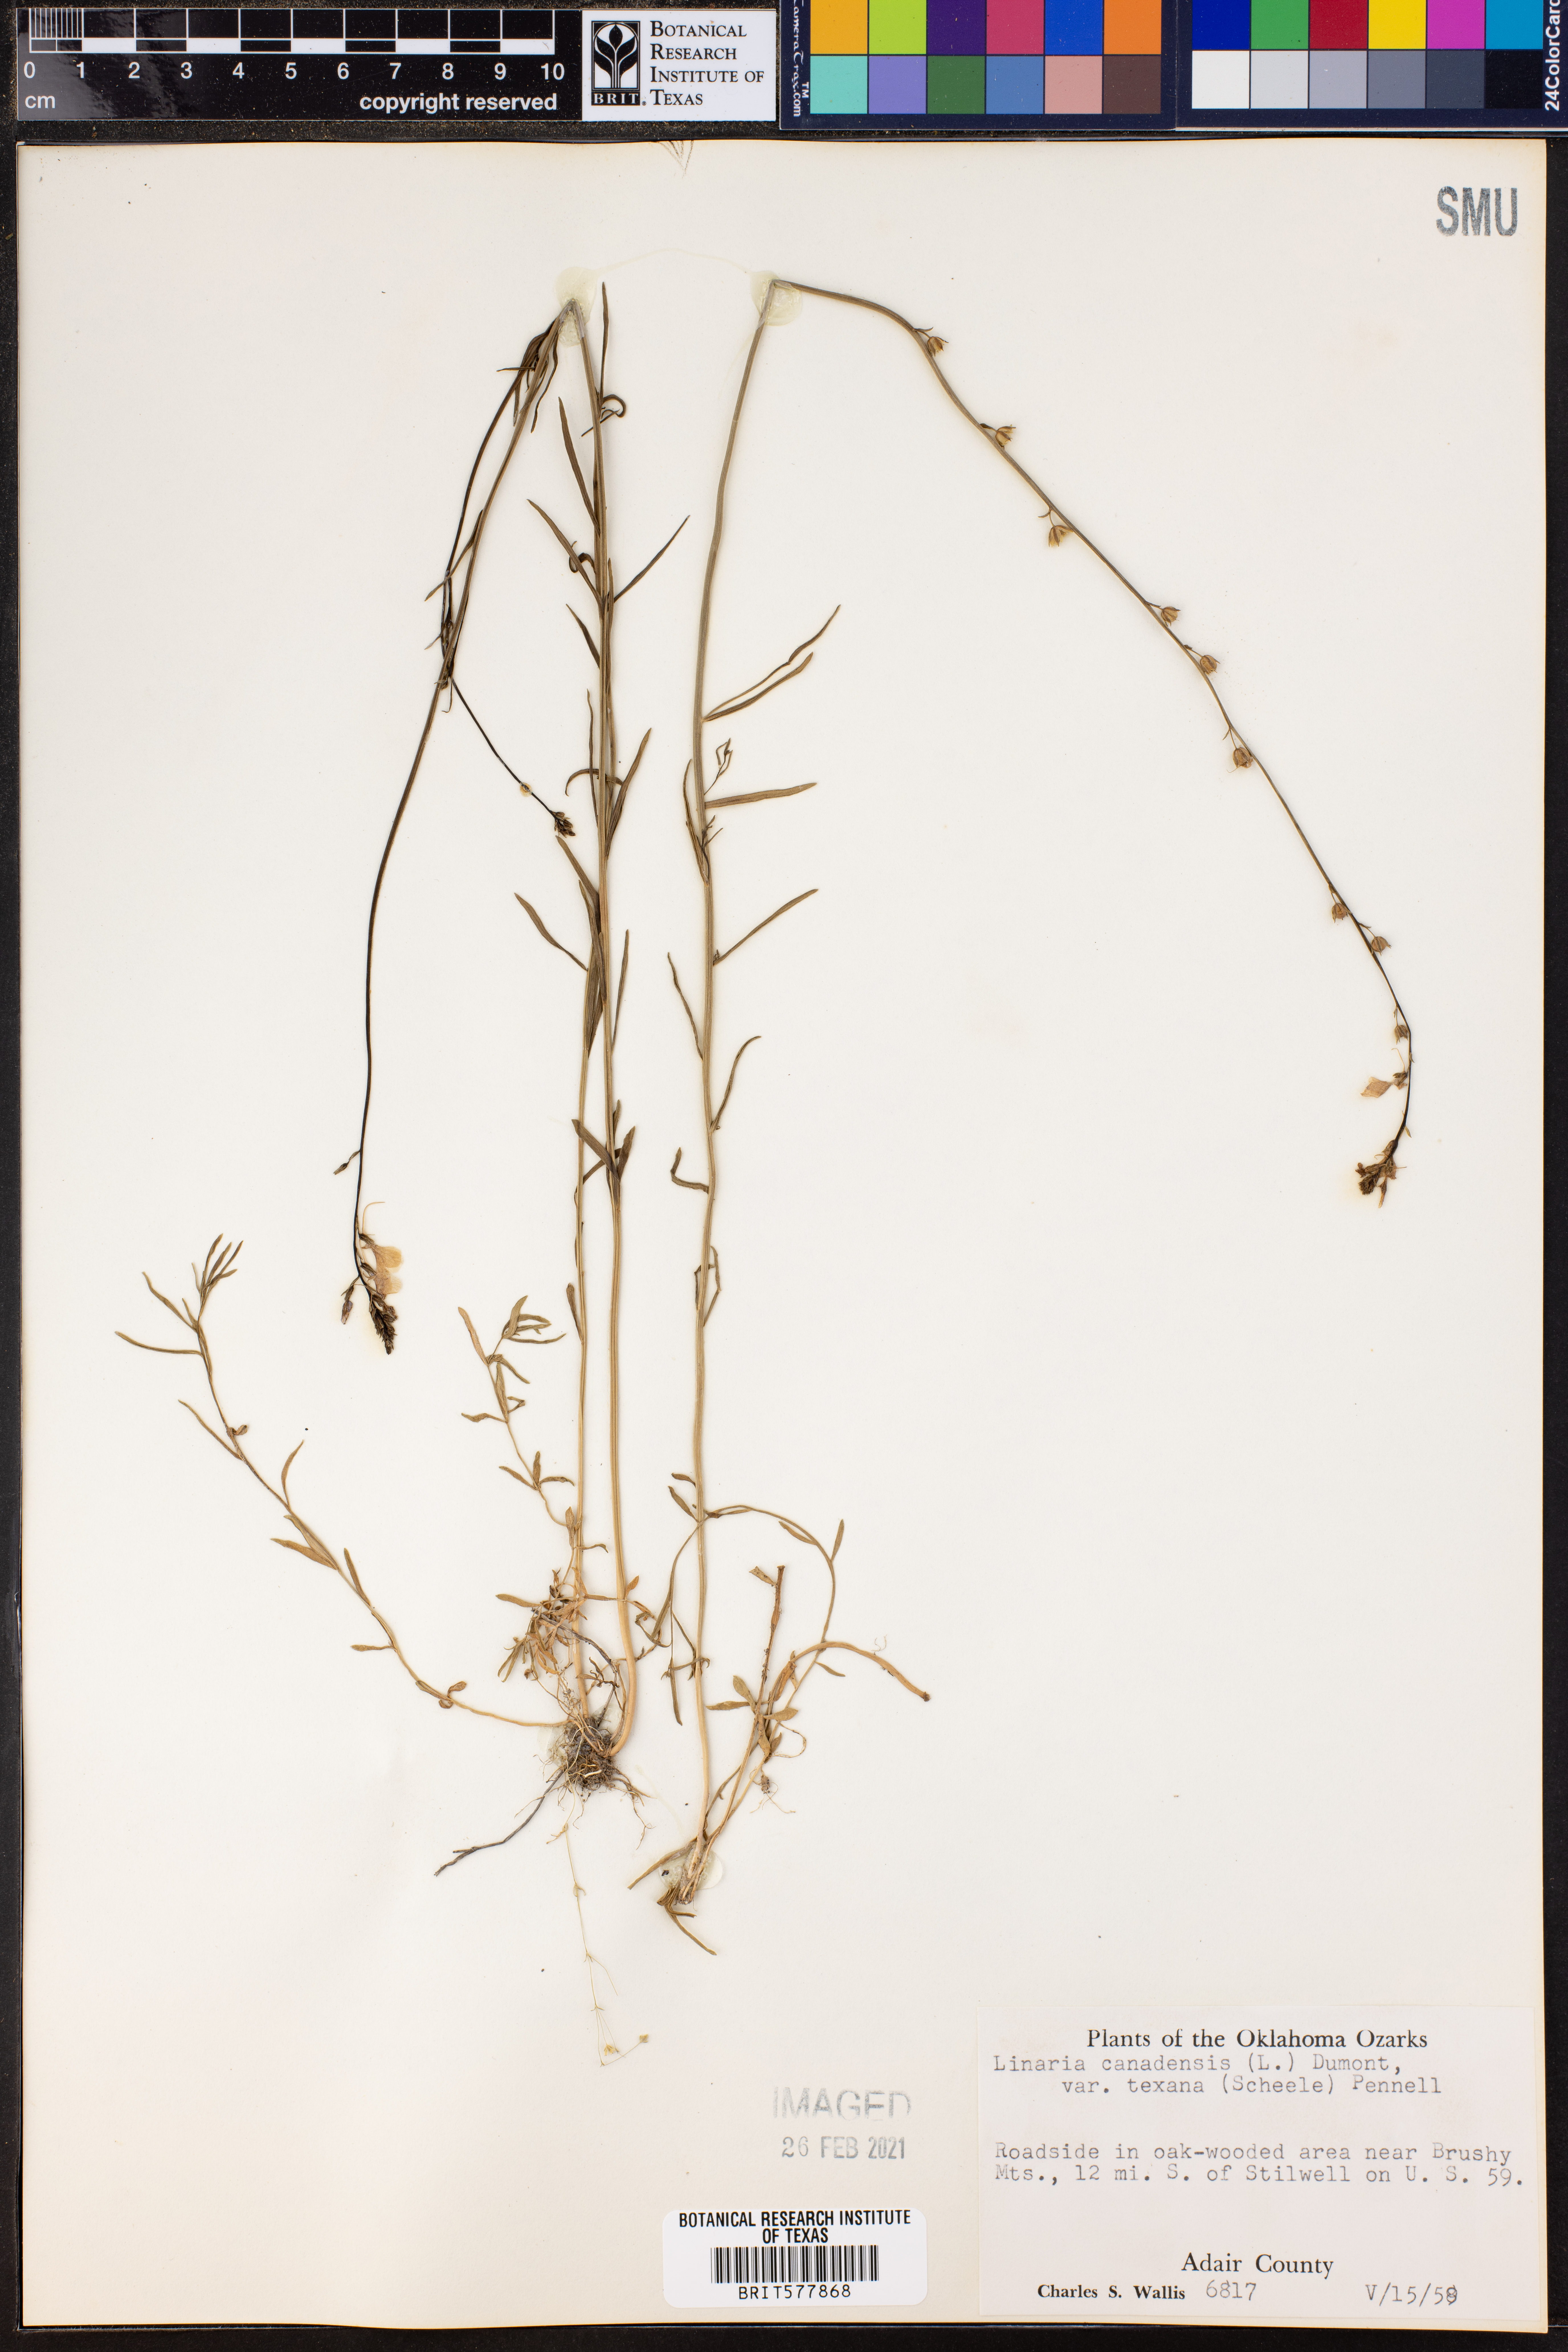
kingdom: Plantae
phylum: Tracheophyta
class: Magnoliopsida
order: Lamiales
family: Plantaginaceae
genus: Nuttallanthus
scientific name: Nuttallanthus texanus
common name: Texas toadflax
